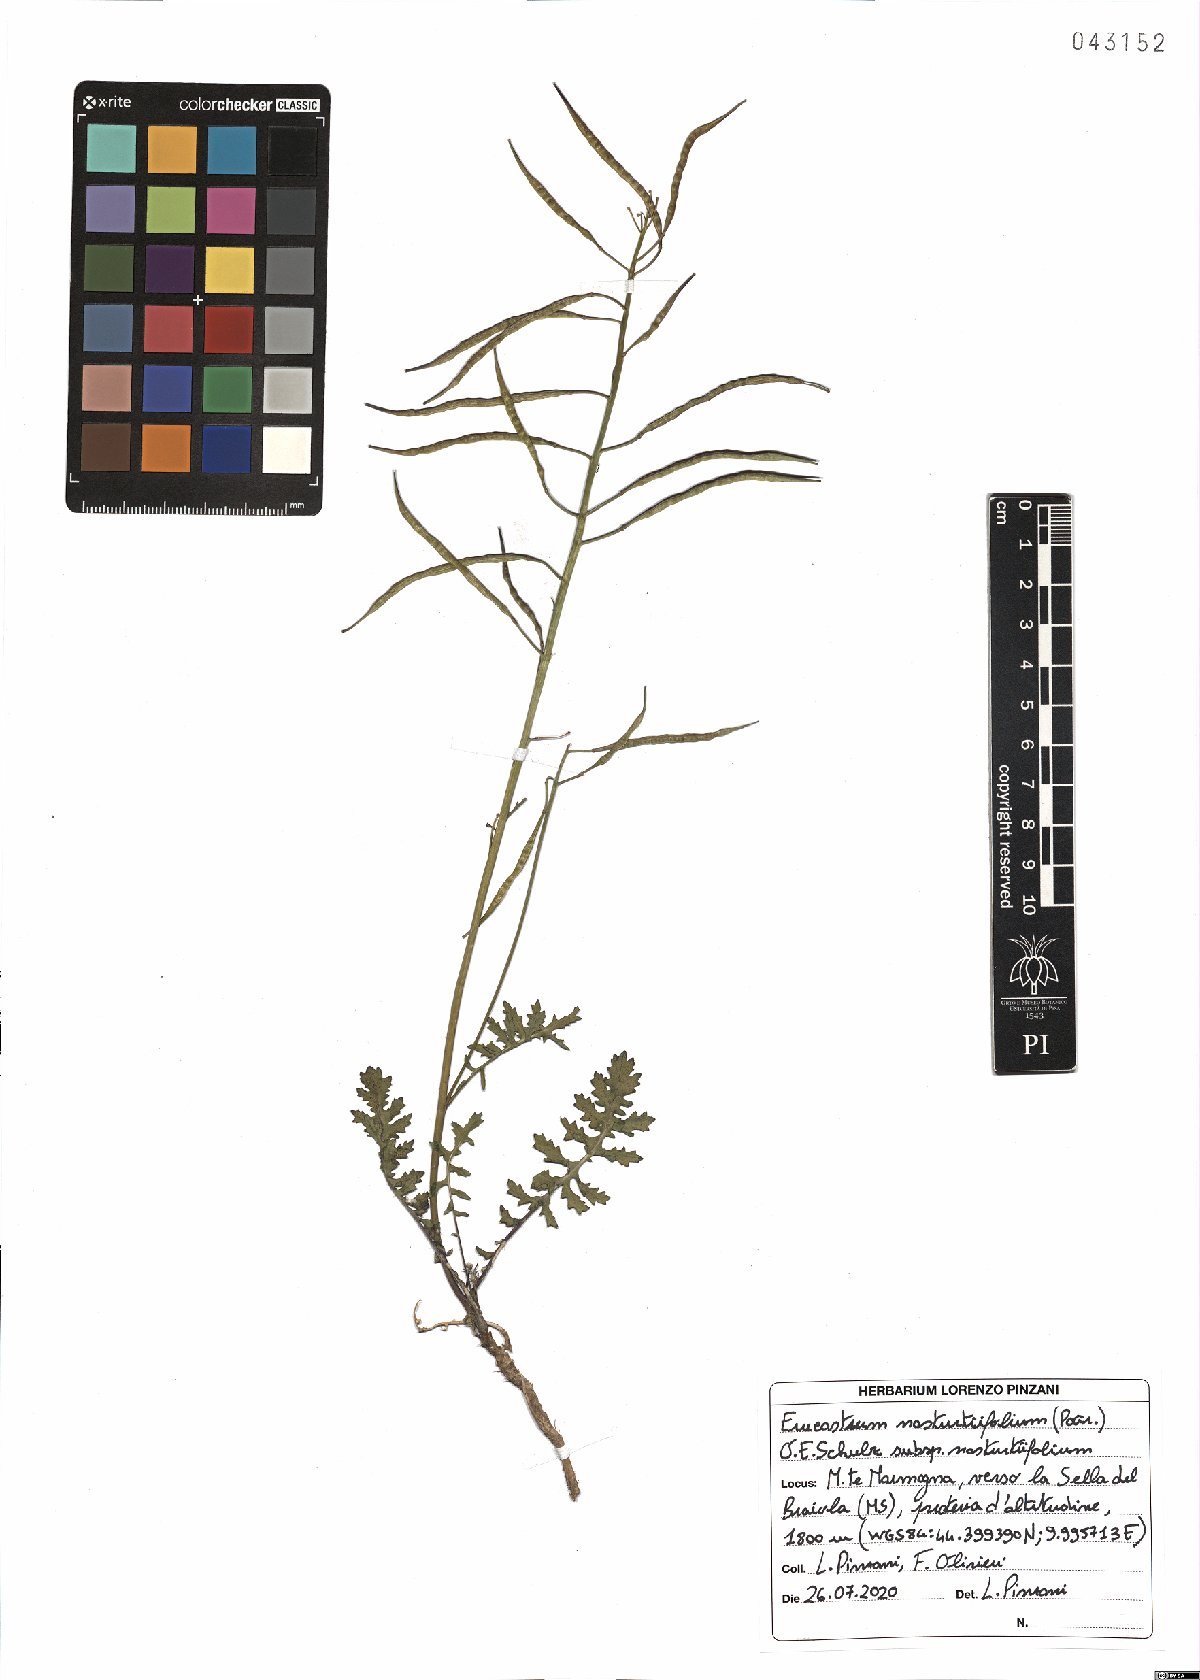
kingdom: Plantae
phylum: Tracheophyta
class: Magnoliopsida
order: Brassicales
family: Brassicaceae
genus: Erucastrum
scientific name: Erucastrum nasturtiifolium
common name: Watercress-leaf rocket
